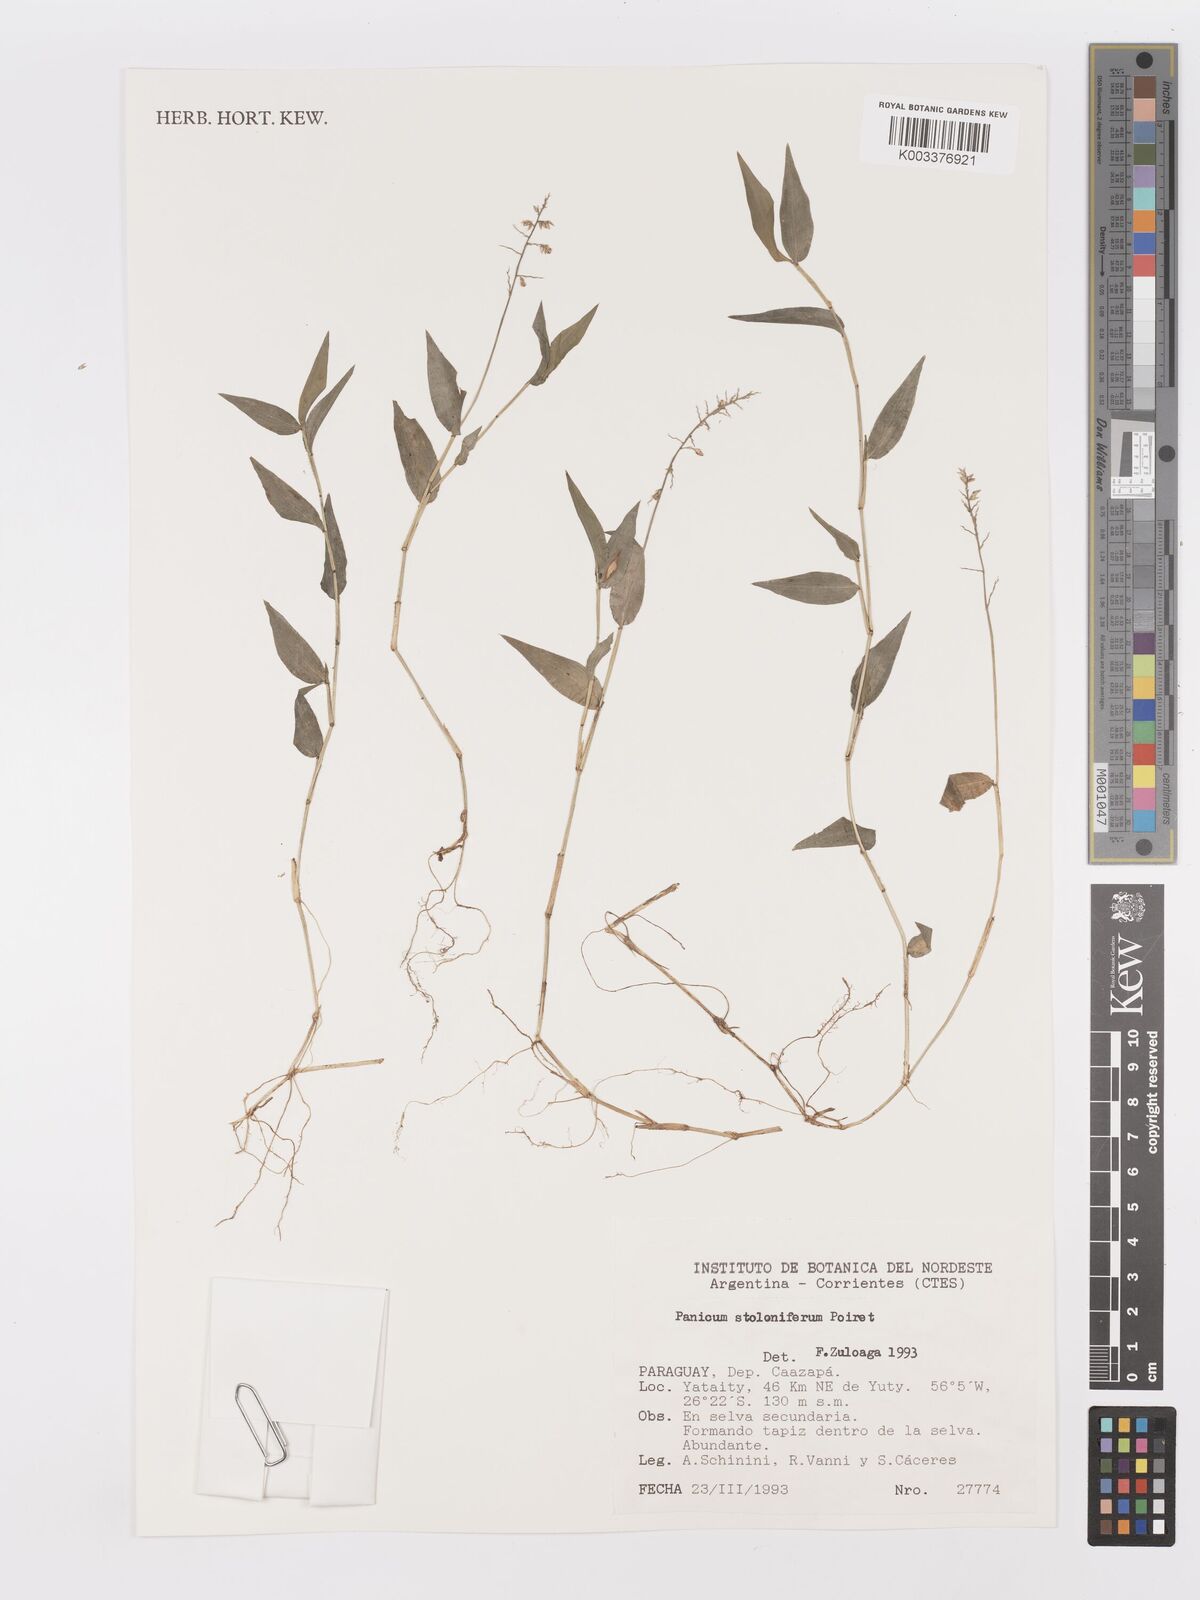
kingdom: Plantae
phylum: Tracheophyta
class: Liliopsida
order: Poales
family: Poaceae
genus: Ocellochloa
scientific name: Ocellochloa stolonifera
